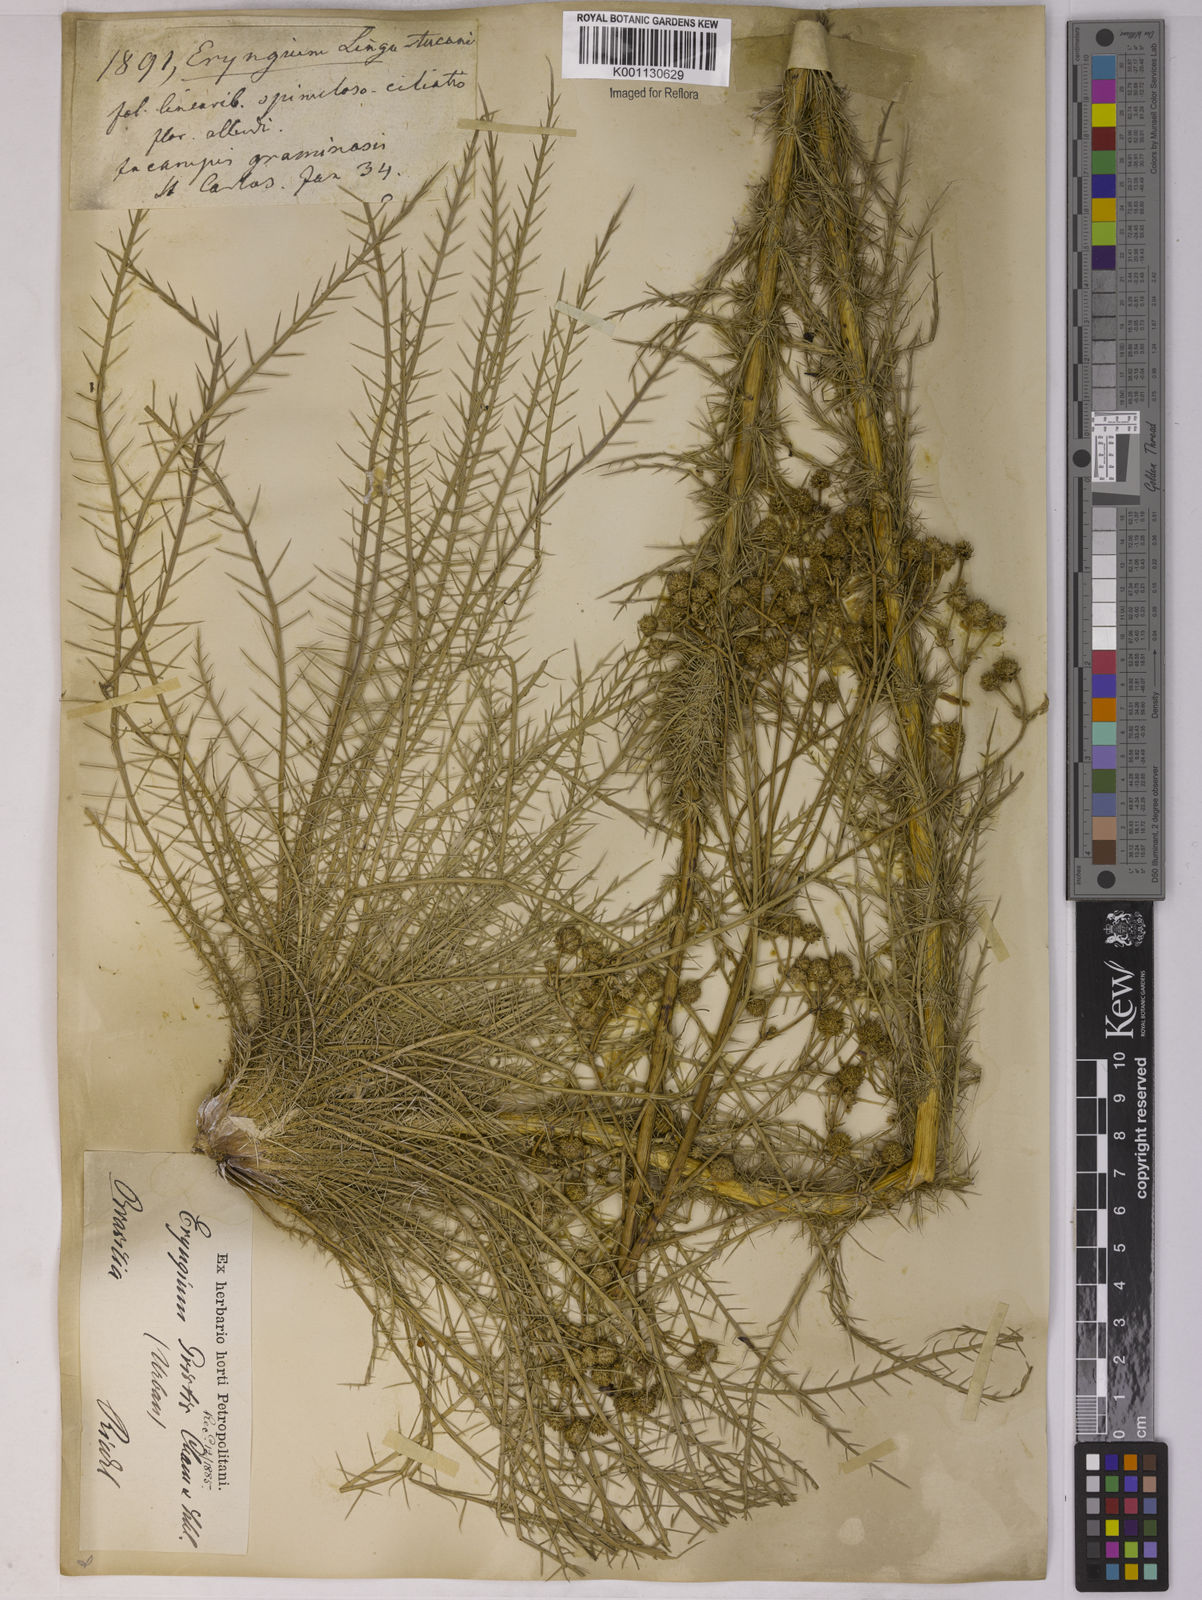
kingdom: Plantae
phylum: Tracheophyta
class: Magnoliopsida
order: Apiales
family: Apiaceae
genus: Eryngium
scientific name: Eryngium pristis
